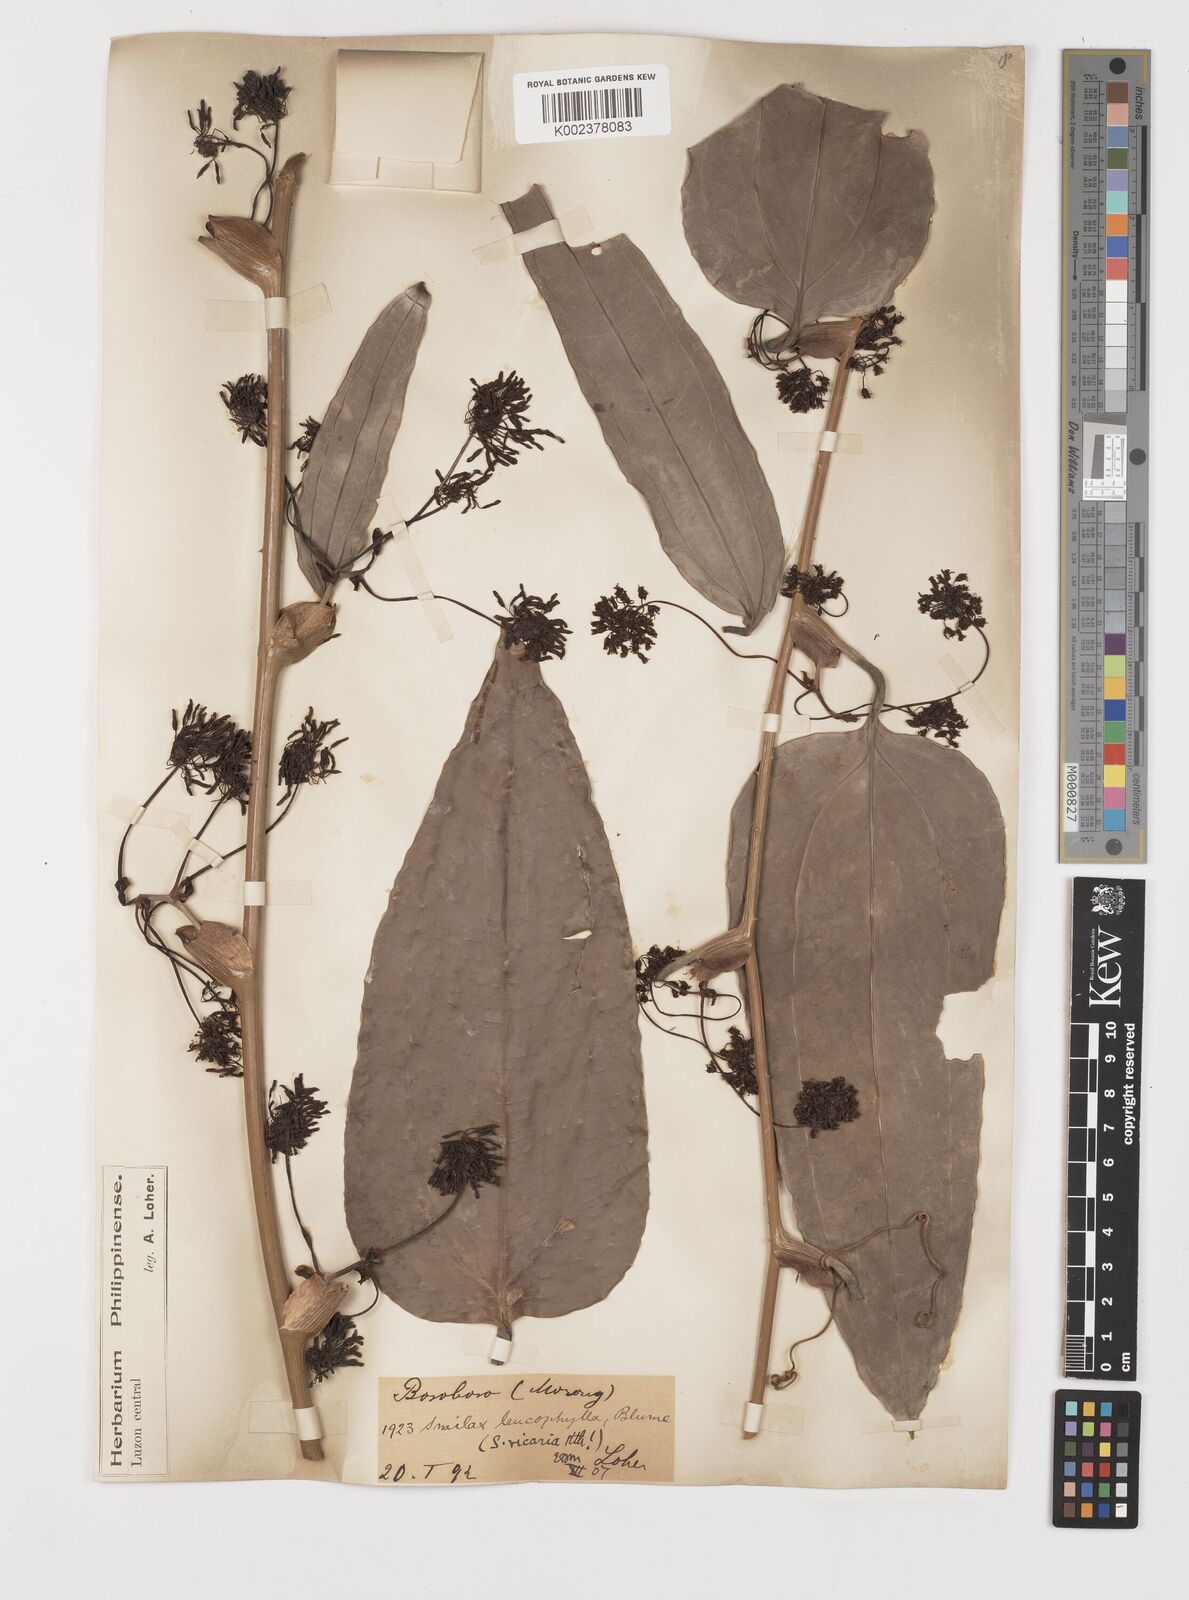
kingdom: Plantae
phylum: Tracheophyta
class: Liliopsida
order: Liliales
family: Smilacaceae
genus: Smilax
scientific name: Smilax leucophylla
